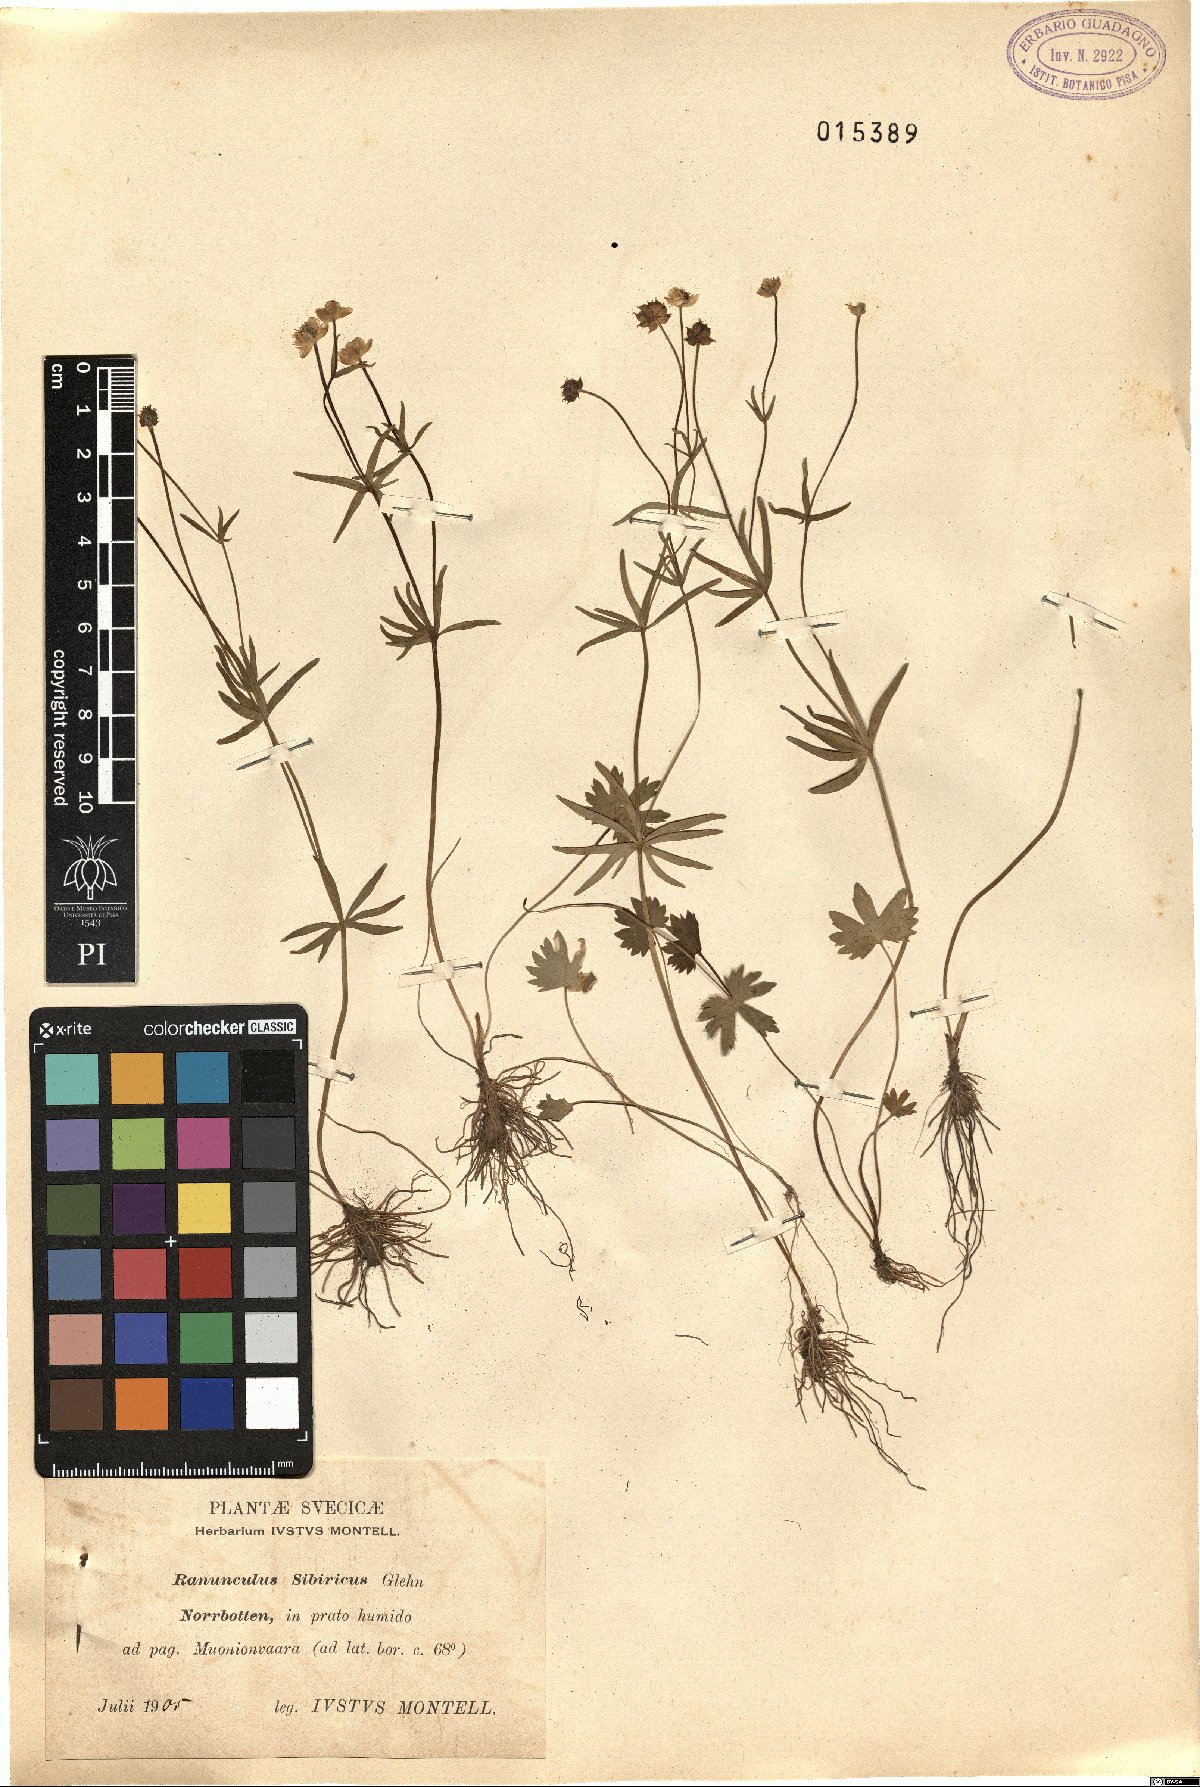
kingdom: Plantae
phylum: Tracheophyta
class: Magnoliopsida
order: Ranunculales
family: Ranunculaceae
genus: Ranunculus
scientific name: Ranunculus monophyllus
